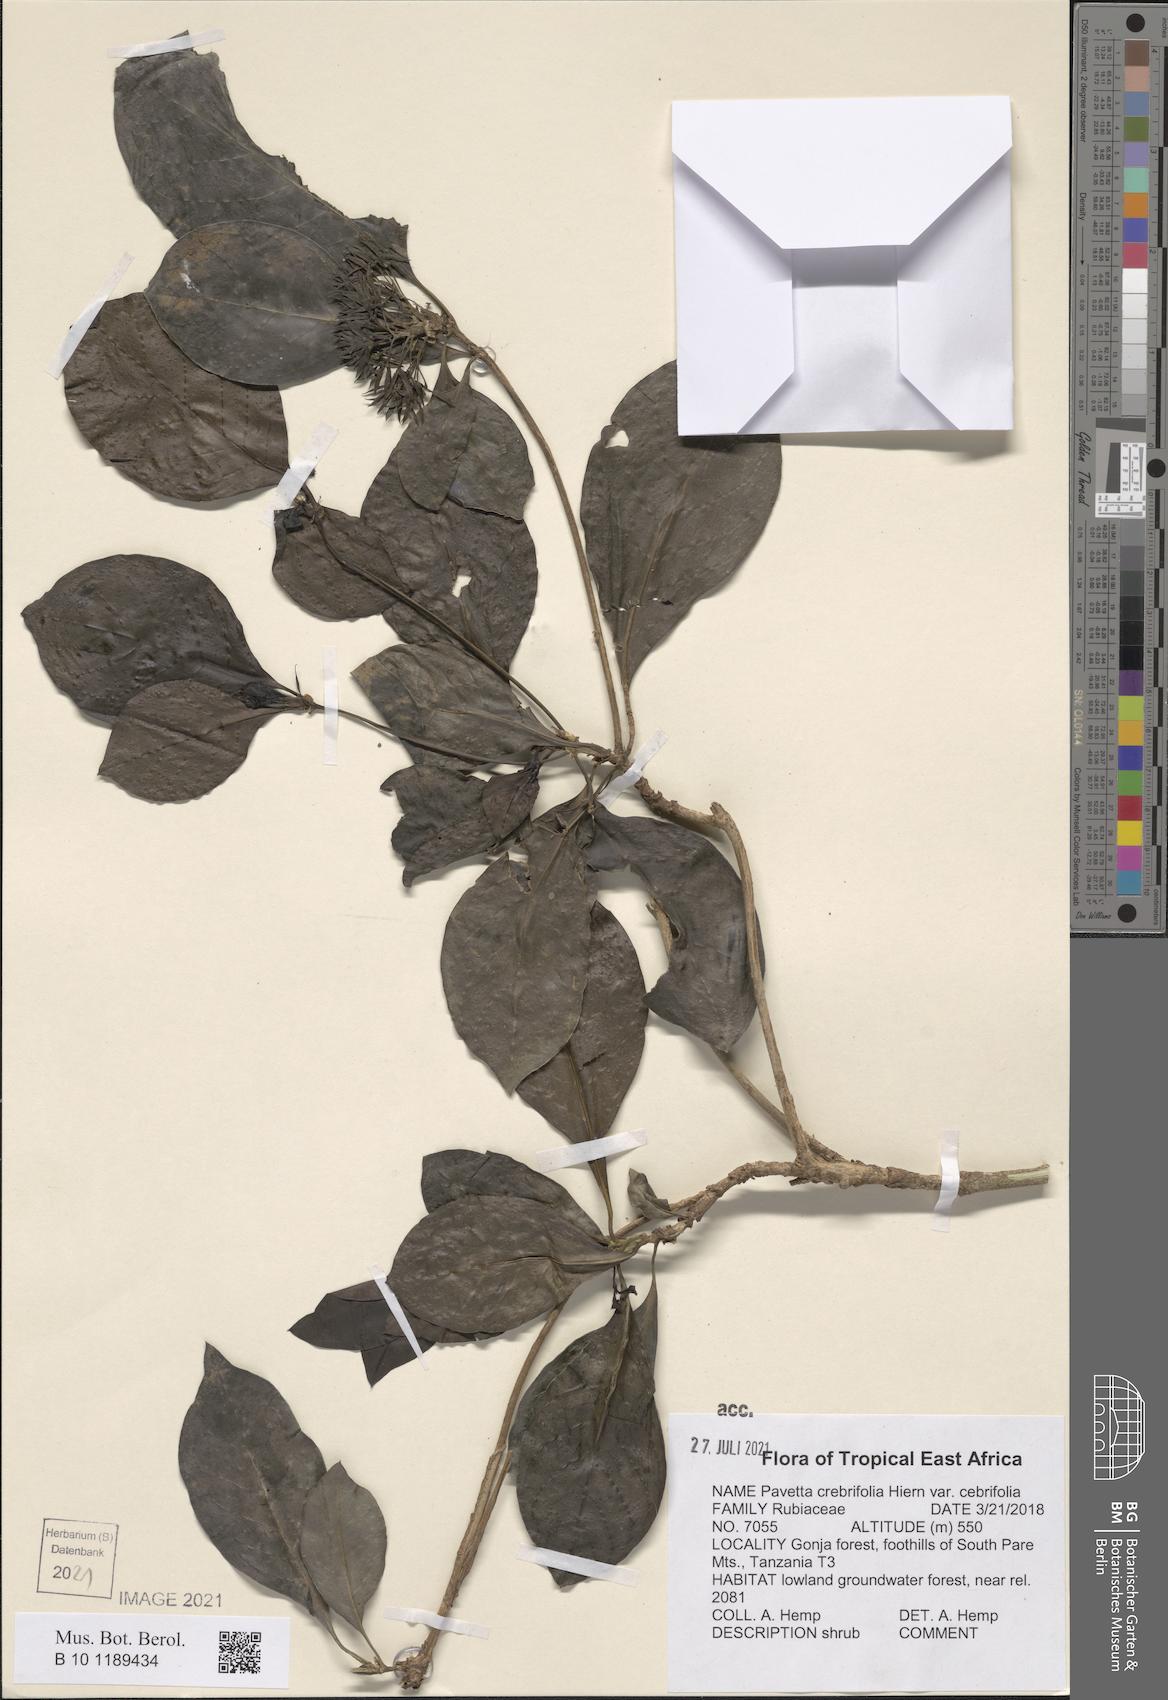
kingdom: Plantae
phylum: Tracheophyta
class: Magnoliopsida
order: Gentianales
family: Rubiaceae
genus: Pavetta
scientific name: Pavetta crebrifolia
